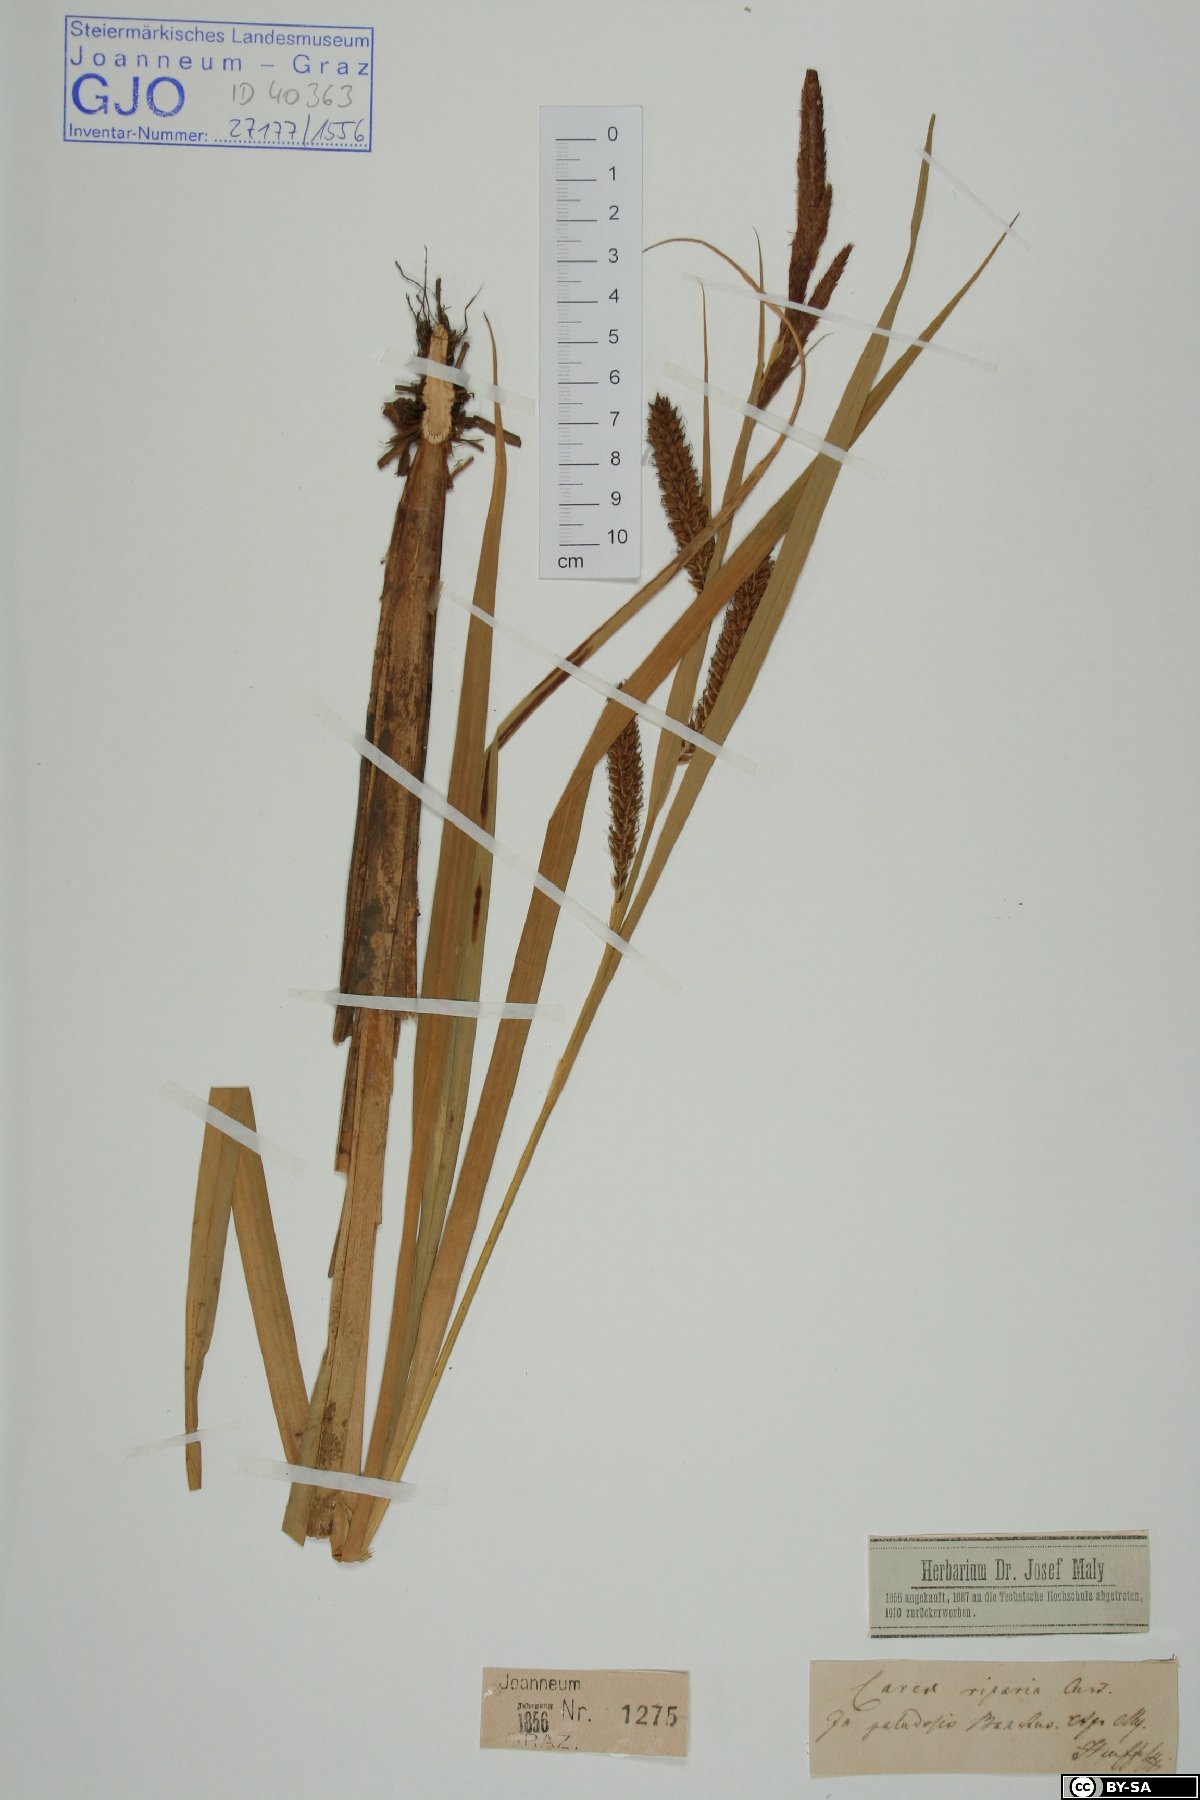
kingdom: Plantae
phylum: Tracheophyta
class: Liliopsida
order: Poales
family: Cyperaceae
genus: Carex
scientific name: Carex riparia
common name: Greater pond-sedge
